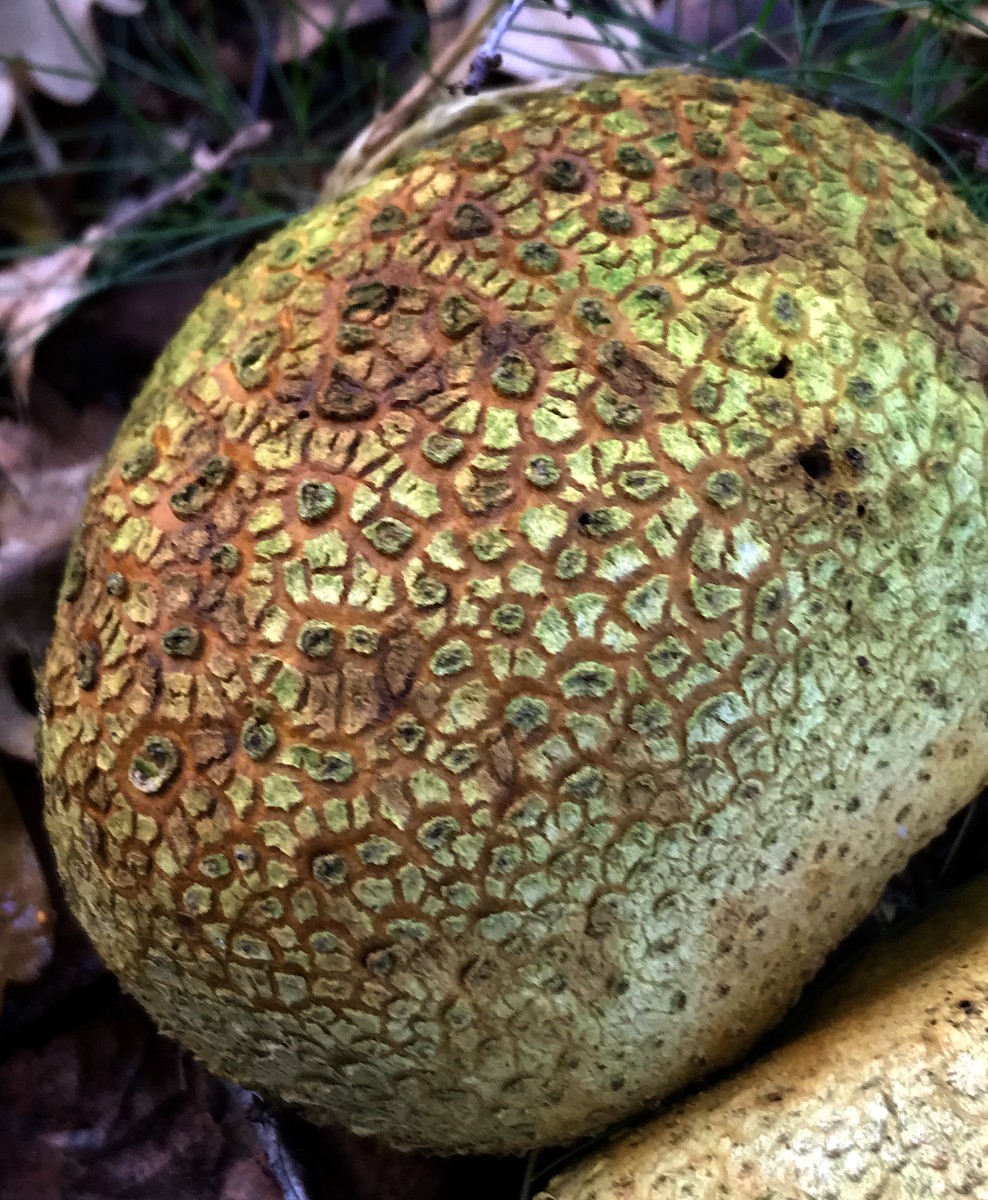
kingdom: Fungi
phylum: Basidiomycota
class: Agaricomycetes
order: Boletales
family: Sclerodermataceae
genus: Scleroderma
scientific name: Scleroderma citrinum
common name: almindelig bruskbold
